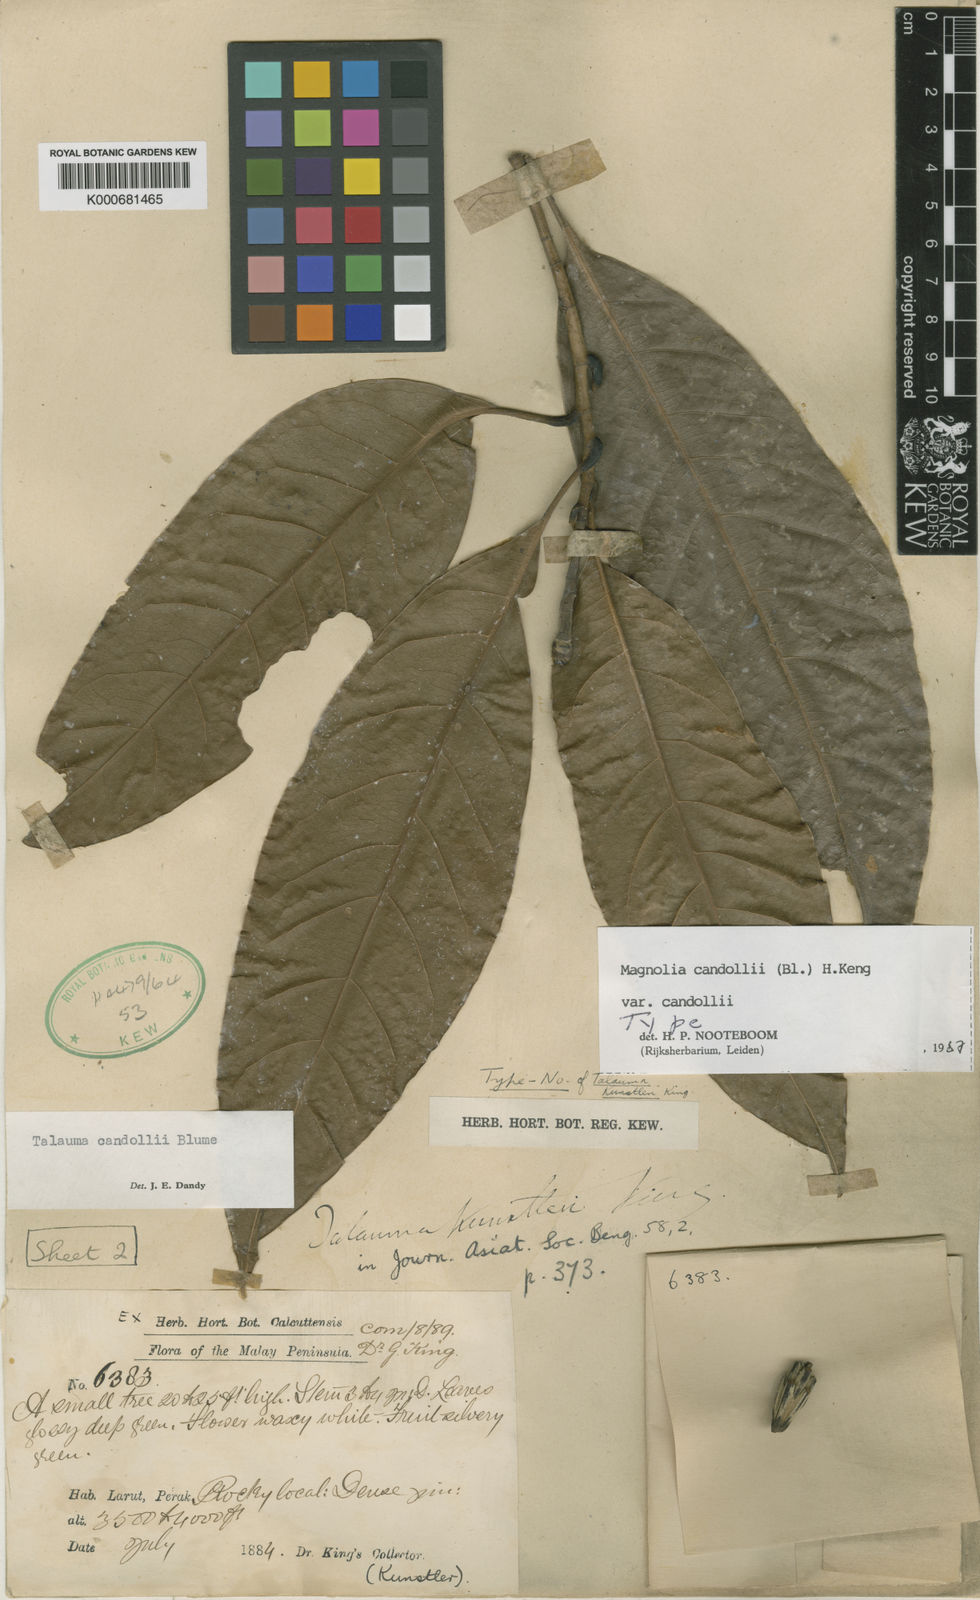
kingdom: Plantae
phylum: Tracheophyta
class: Magnoliopsida
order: Magnoliales
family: Magnoliaceae
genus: Magnolia
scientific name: Magnolia liliifera
